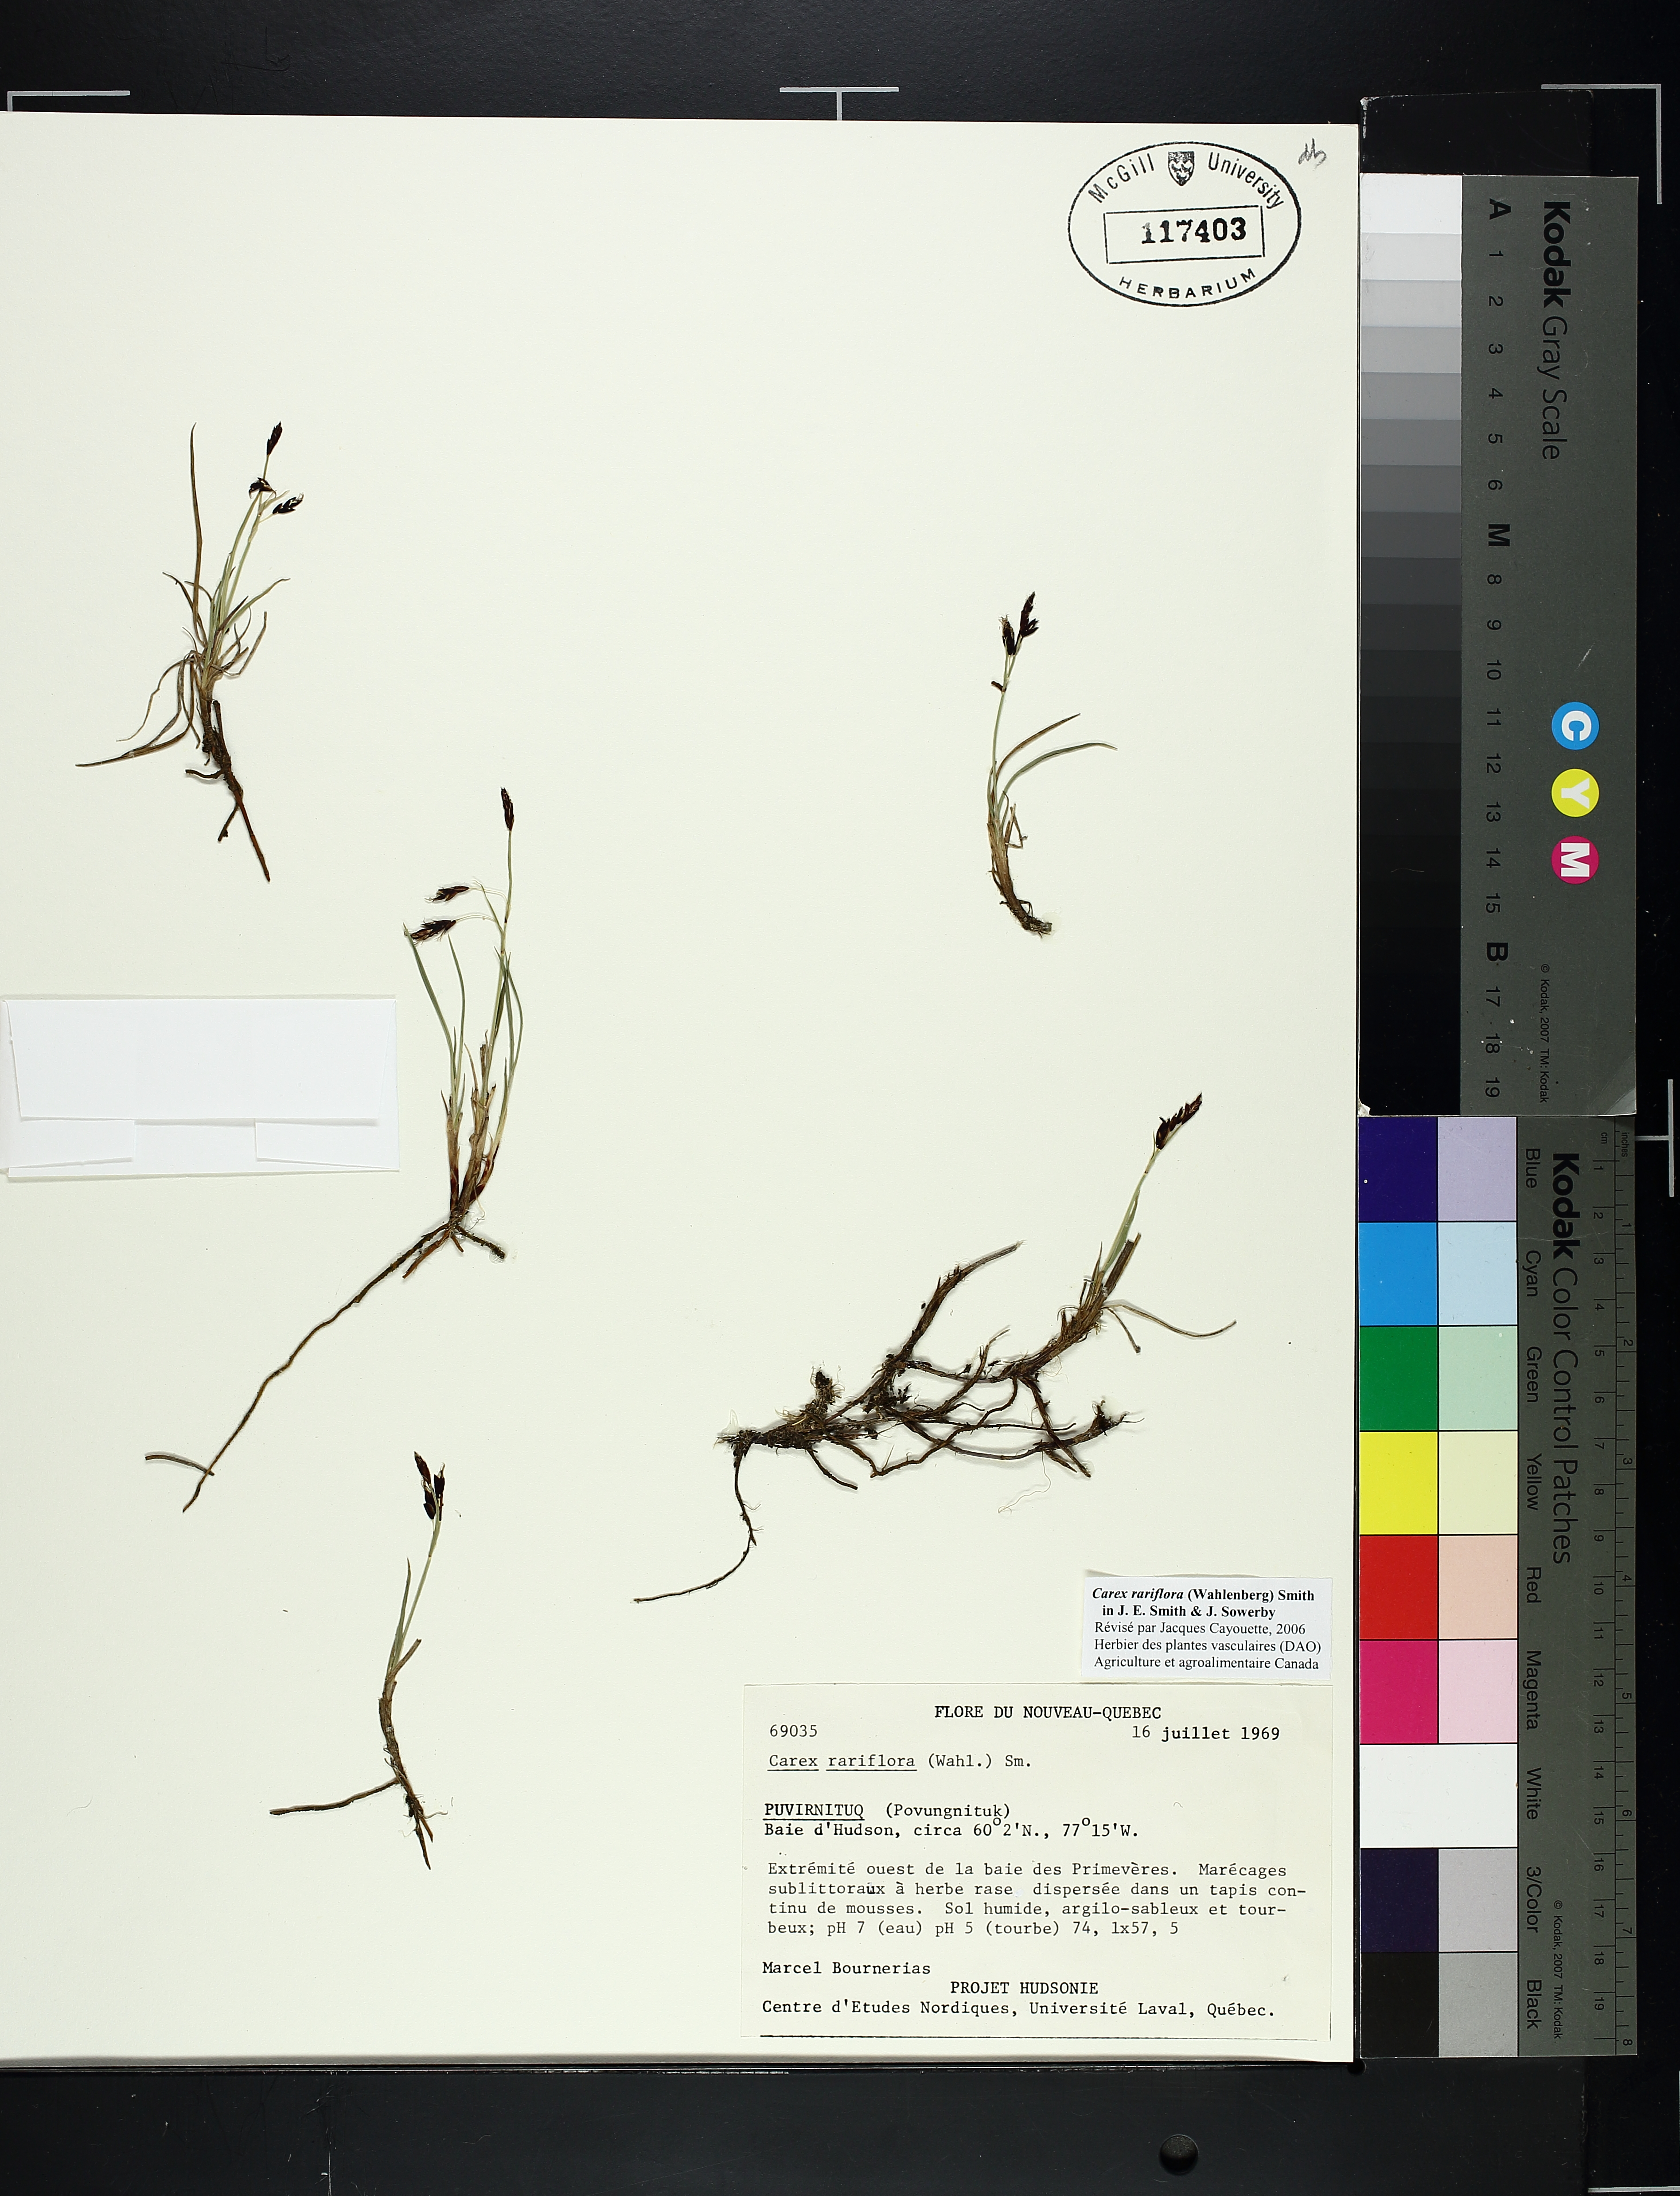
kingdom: Plantae
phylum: Tracheophyta
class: Liliopsida
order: Poales
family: Cyperaceae
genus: Carex
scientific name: Carex rariflora
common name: Loose-flowered alpine sedge
